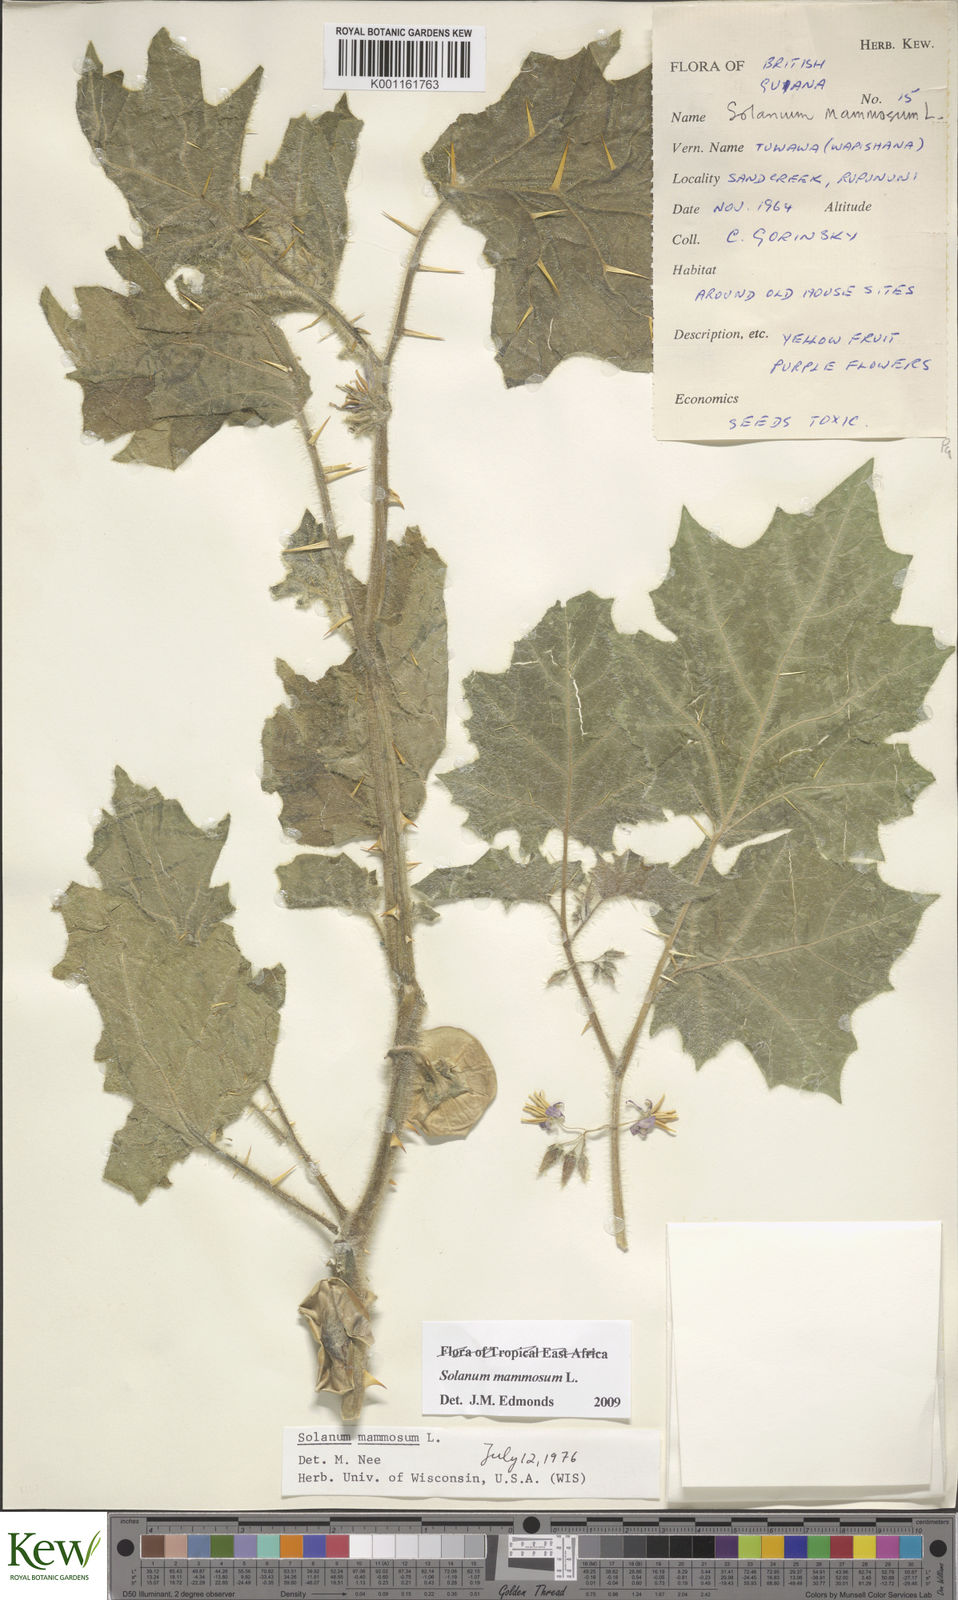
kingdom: Plantae
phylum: Tracheophyta
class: Magnoliopsida
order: Solanales
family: Solanaceae
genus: Solanum
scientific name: Solanum mammosum
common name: Nipple fruit
